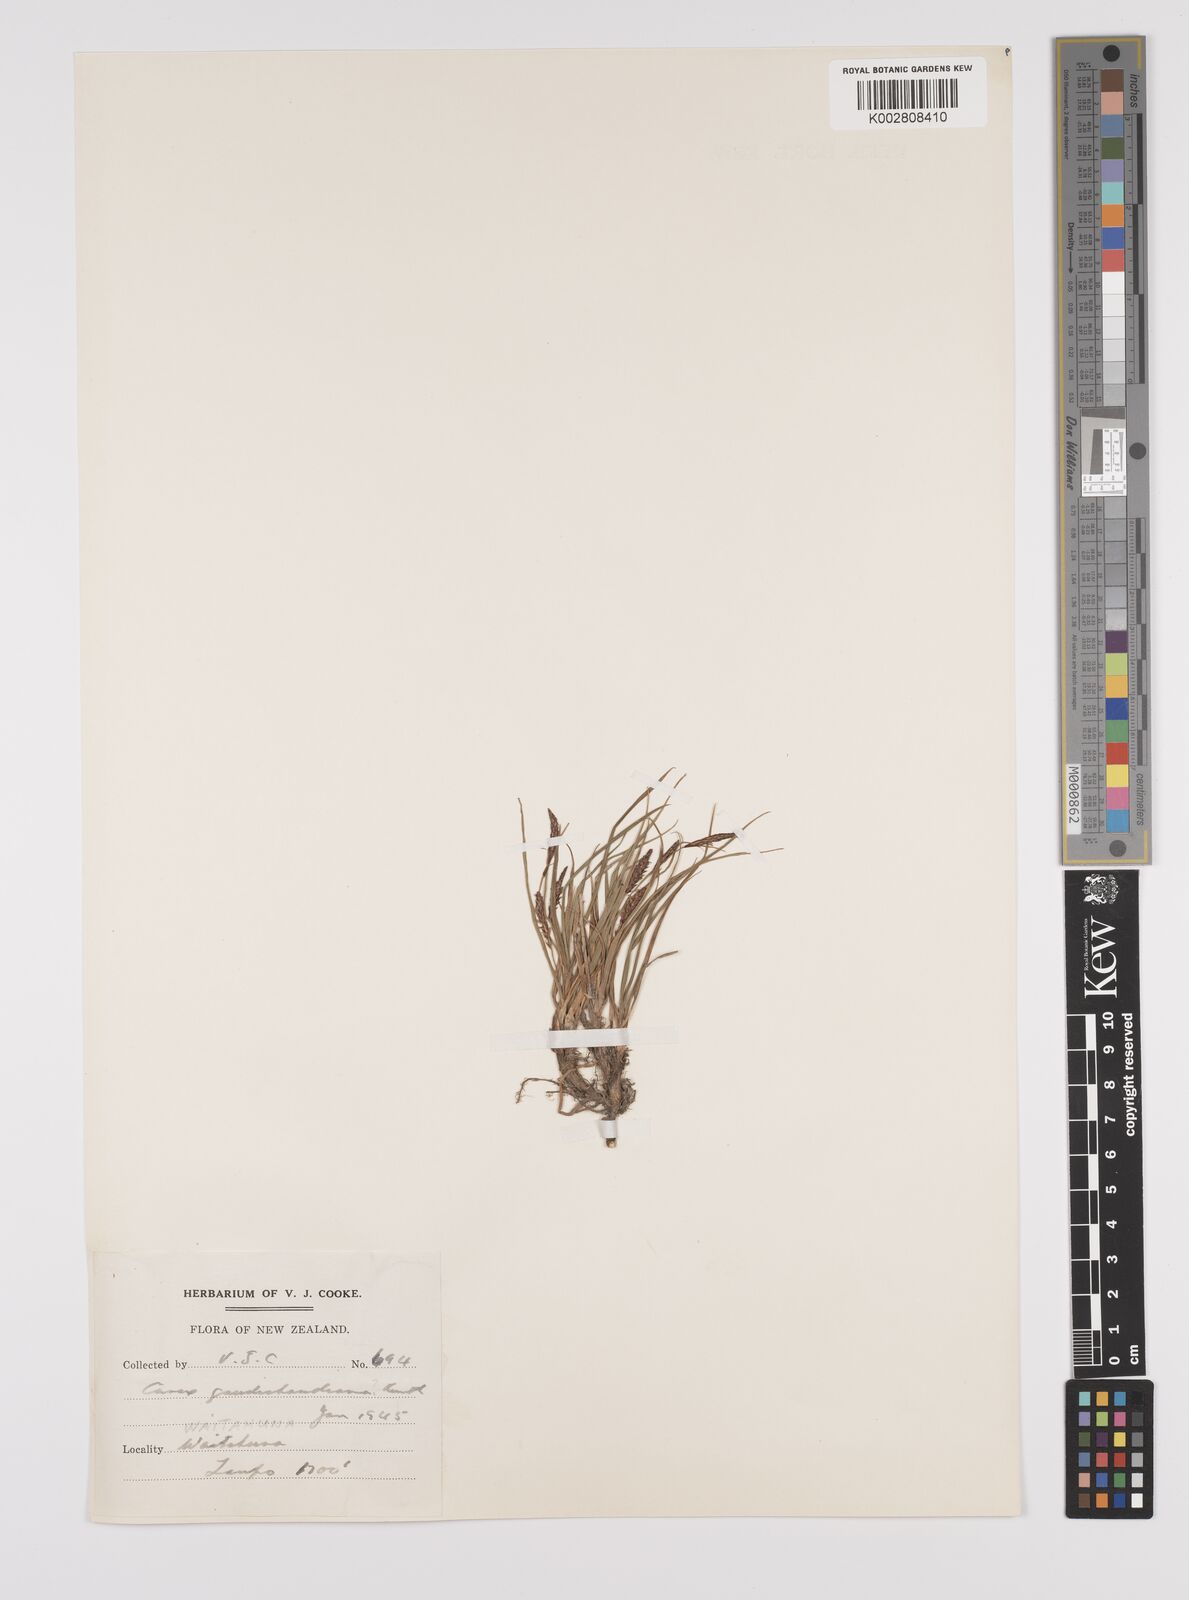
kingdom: Plantae
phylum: Tracheophyta
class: Liliopsida
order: Poales
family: Cyperaceae
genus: Carex
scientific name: Carex gaudichaudiana
